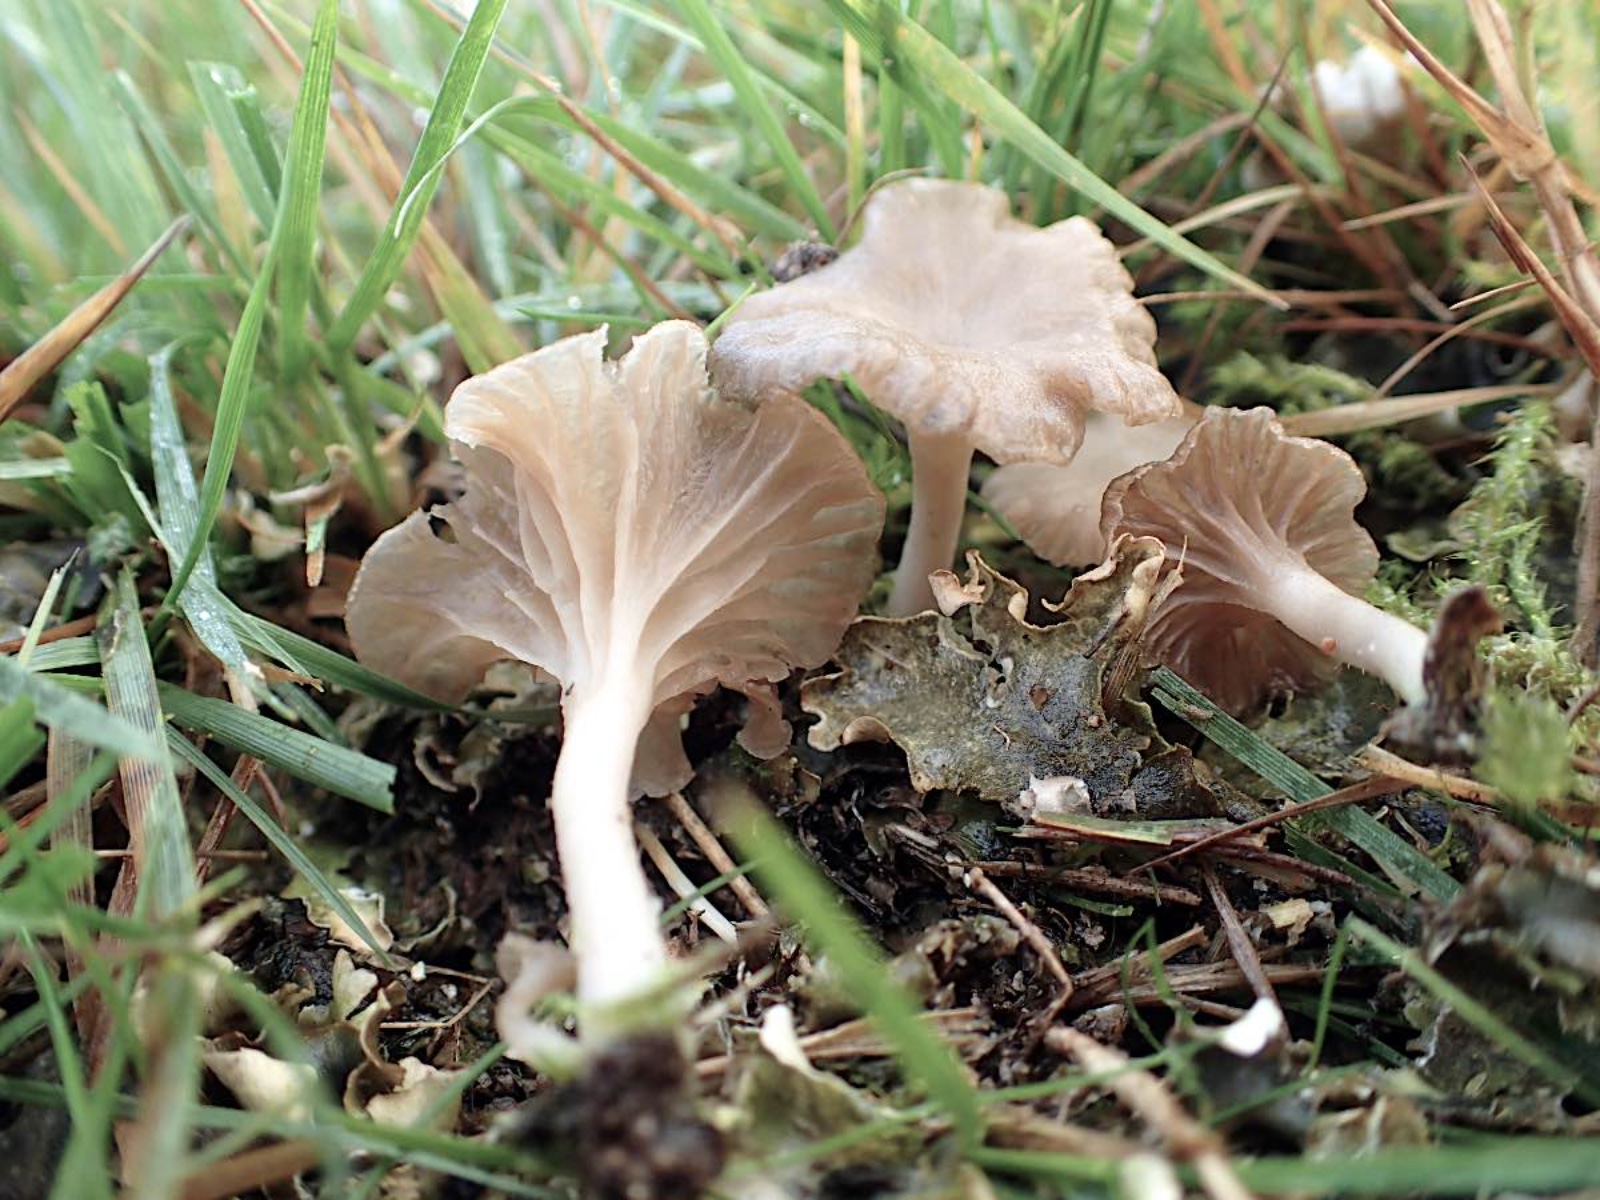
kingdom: Fungi
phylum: Basidiomycota
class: Agaricomycetes
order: Agaricales
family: Hygrophoraceae
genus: Arrhenia
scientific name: Arrhenia peltigerina
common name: skjoldlav-fontænehat
